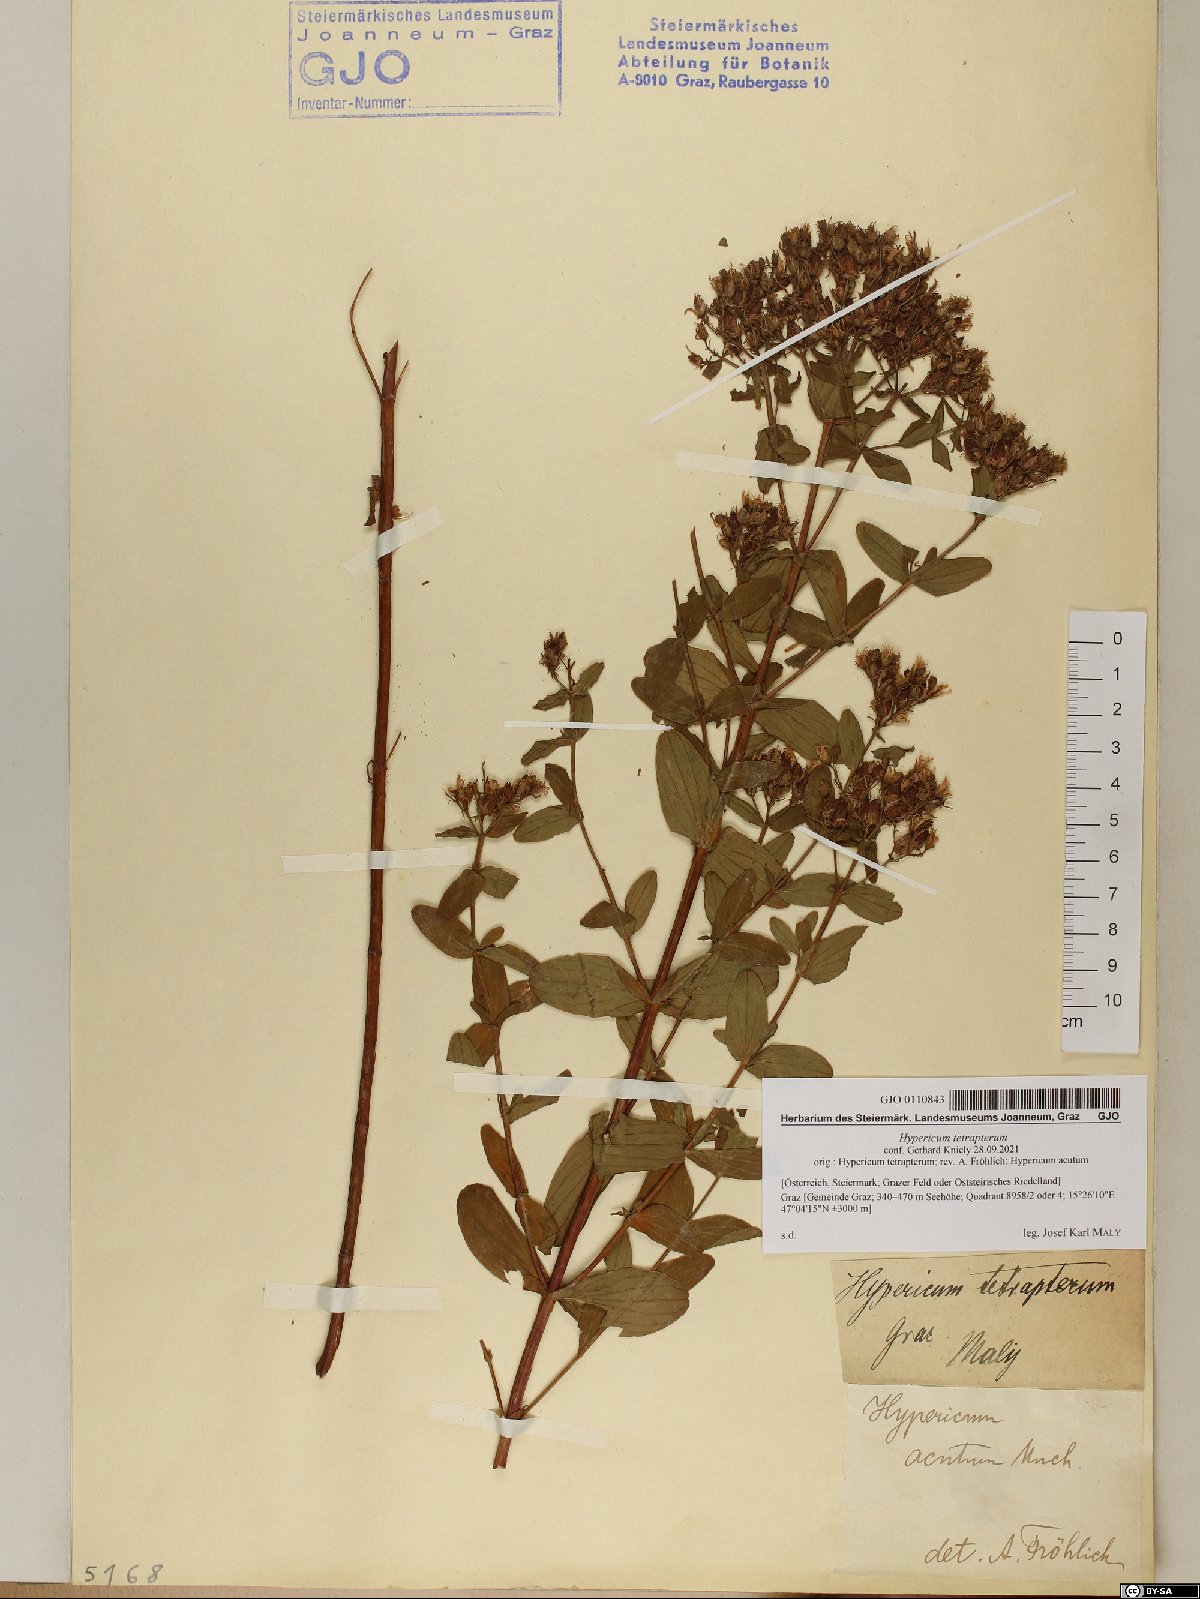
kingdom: Plantae
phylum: Tracheophyta
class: Magnoliopsida
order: Malpighiales
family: Hypericaceae
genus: Hypericum
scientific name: Hypericum tetrapterum
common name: Square-stalked st. john's-wort
